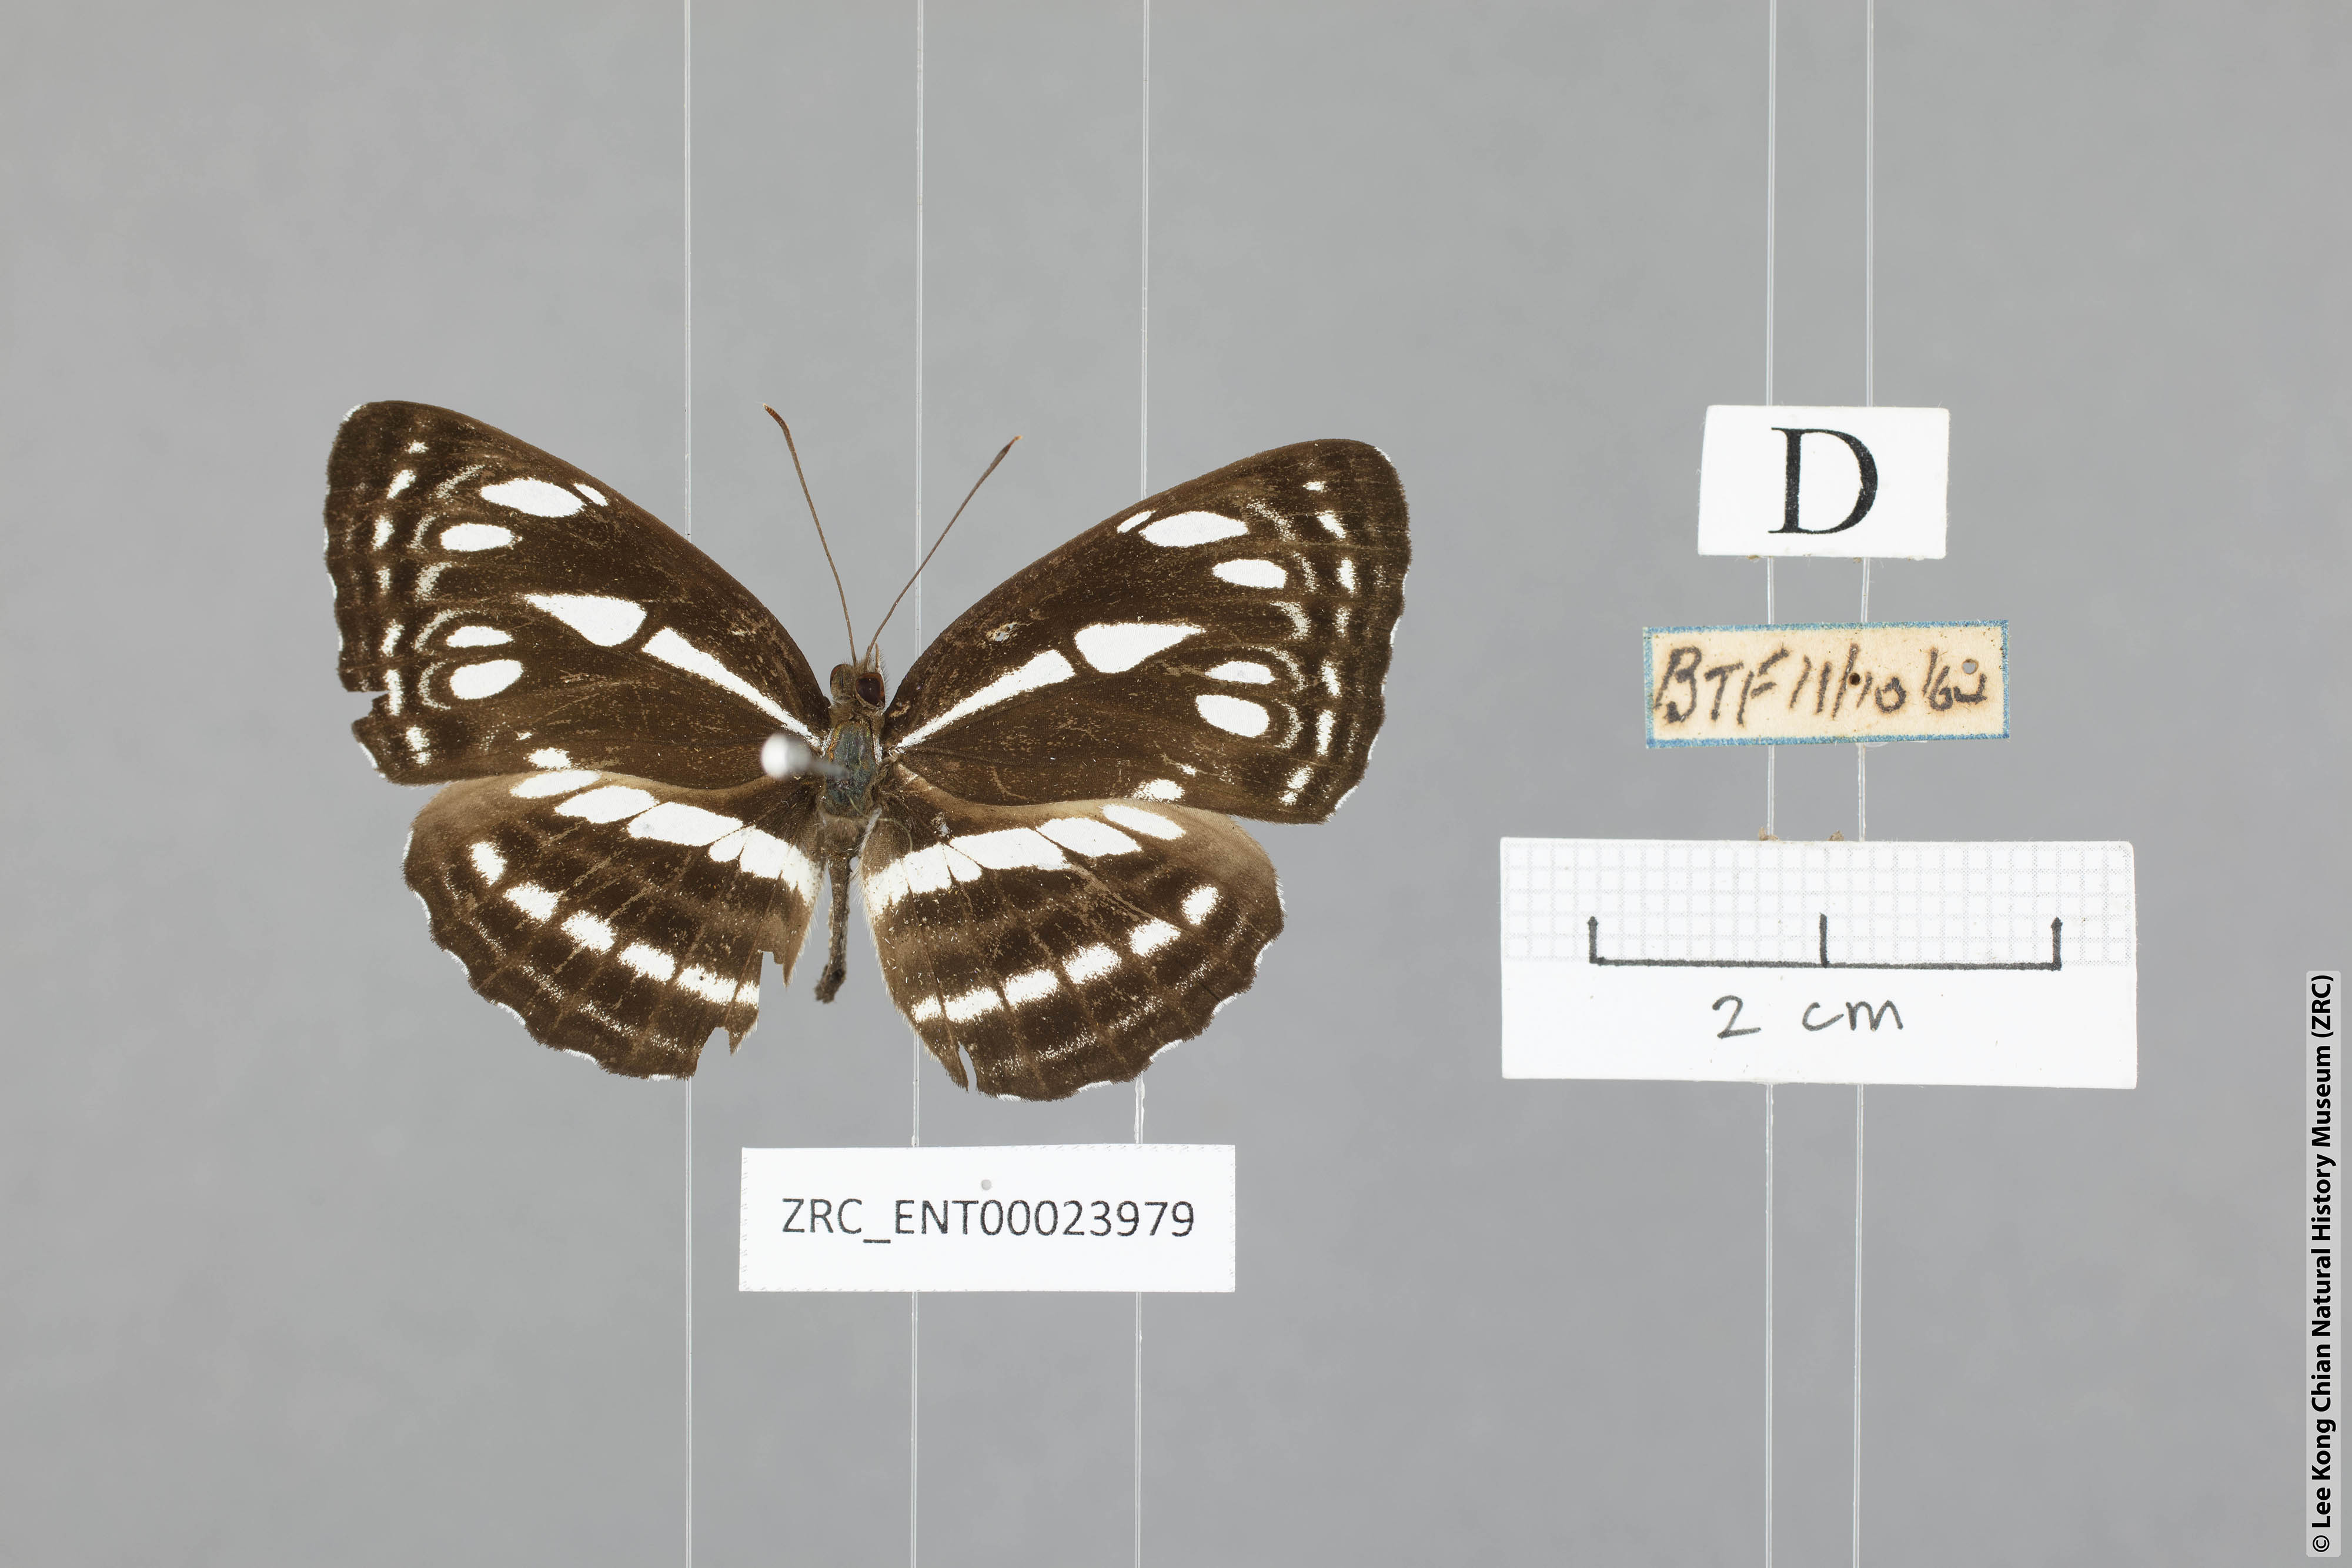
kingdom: Animalia
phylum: Arthropoda
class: Insecta
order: Lepidoptera
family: Nymphalidae
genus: Neptis
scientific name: Neptis duryodana
